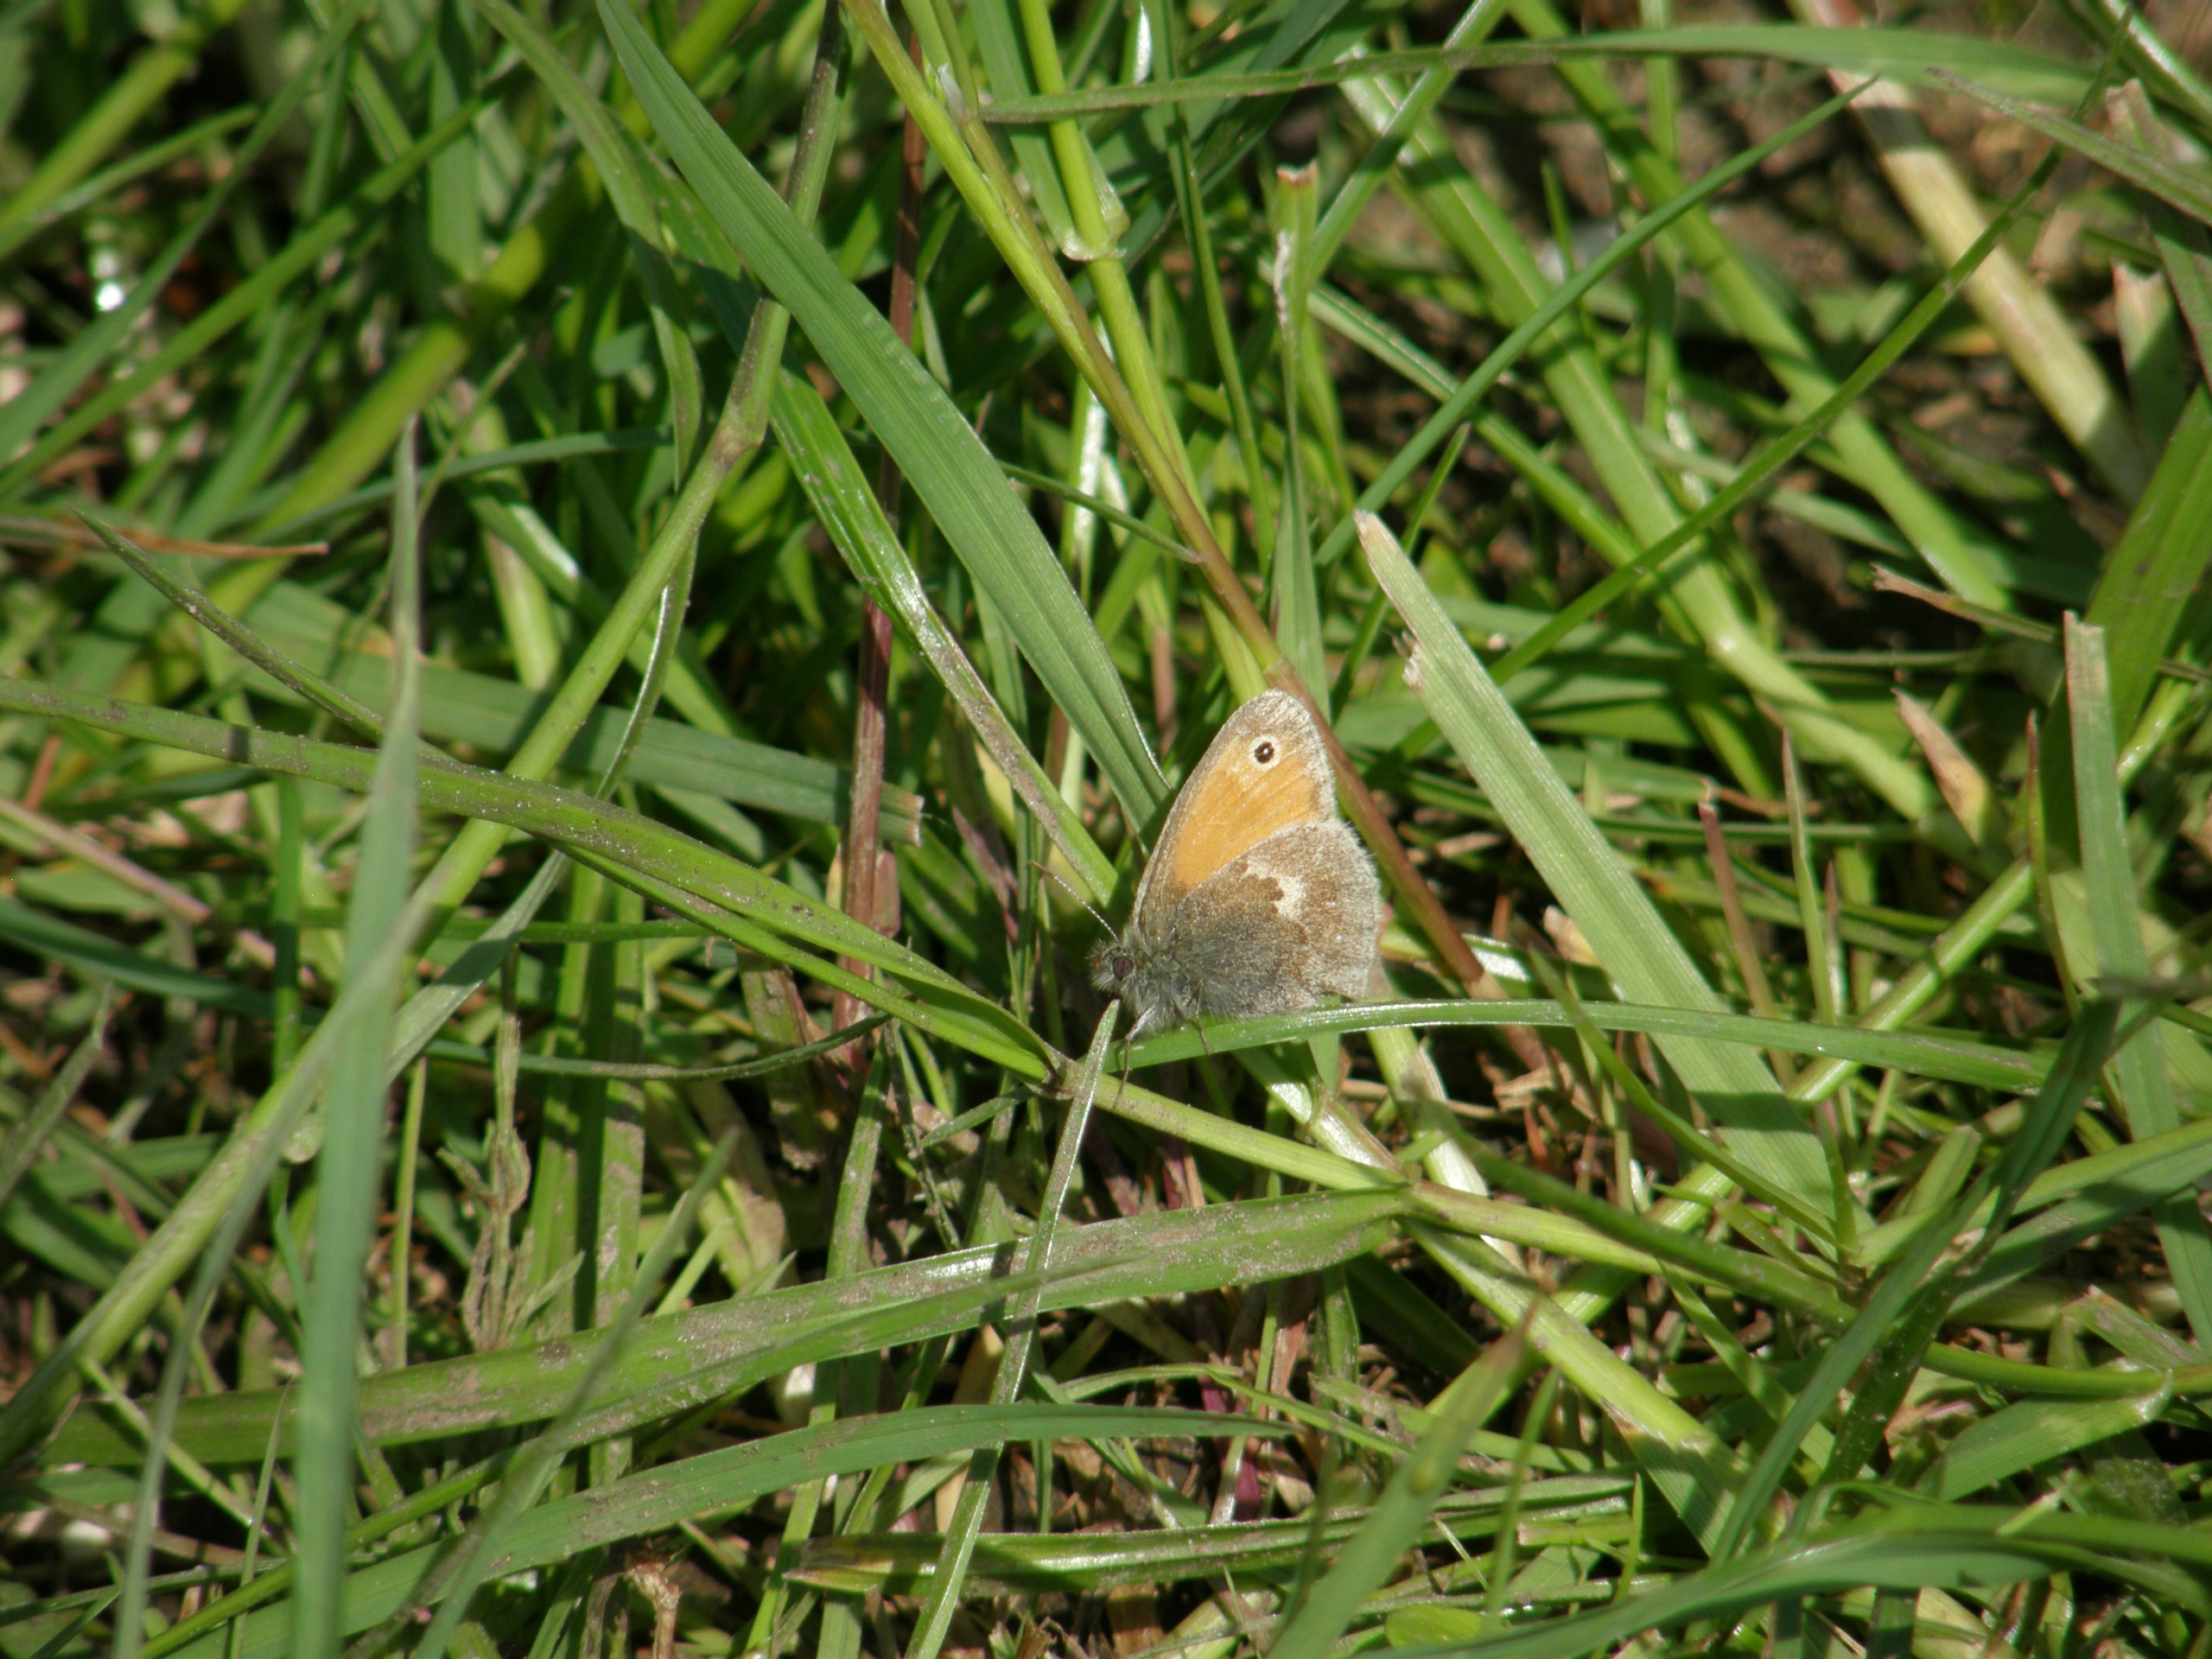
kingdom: Animalia
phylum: Arthropoda
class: Insecta
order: Lepidoptera
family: Nymphalidae
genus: Coenonympha
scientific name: Coenonympha pamphilus
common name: Okkergul randøje
